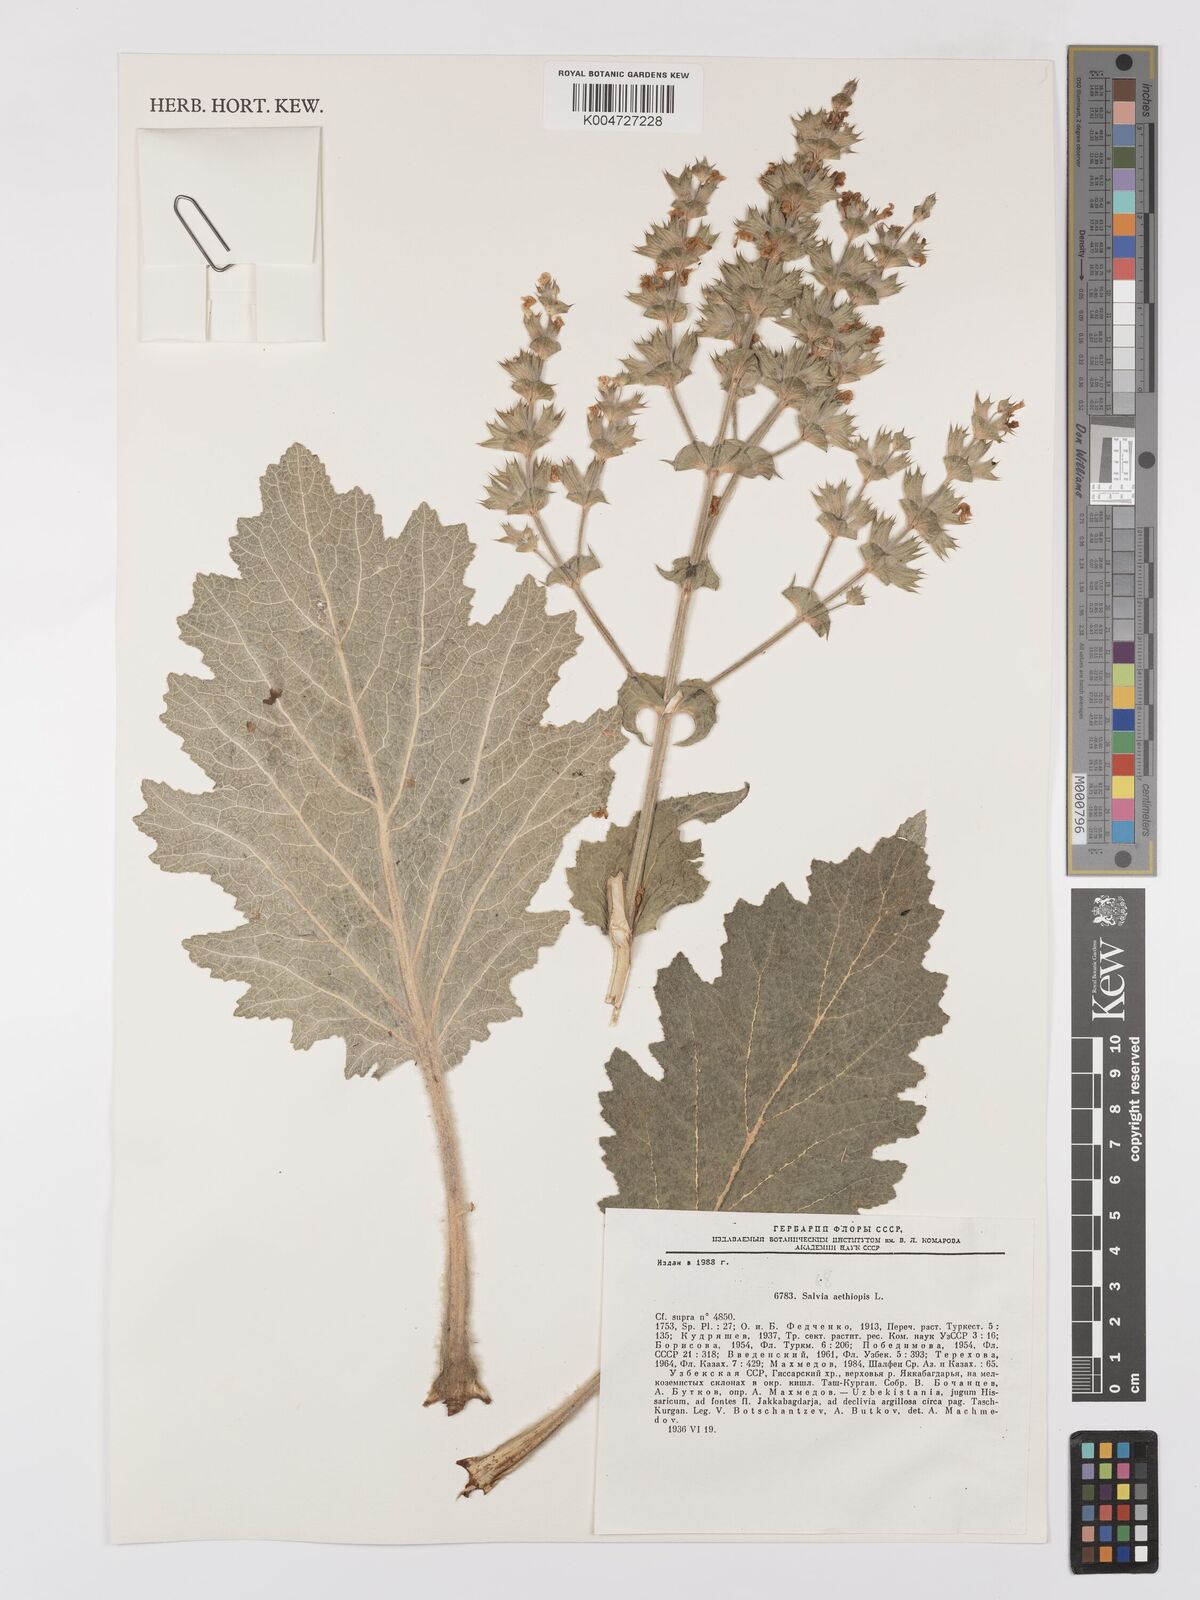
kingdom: Plantae
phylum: Tracheophyta
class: Magnoliopsida
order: Lamiales
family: Lamiaceae
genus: Salvia
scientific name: Salvia aethiopis
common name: Mediterranean sage
